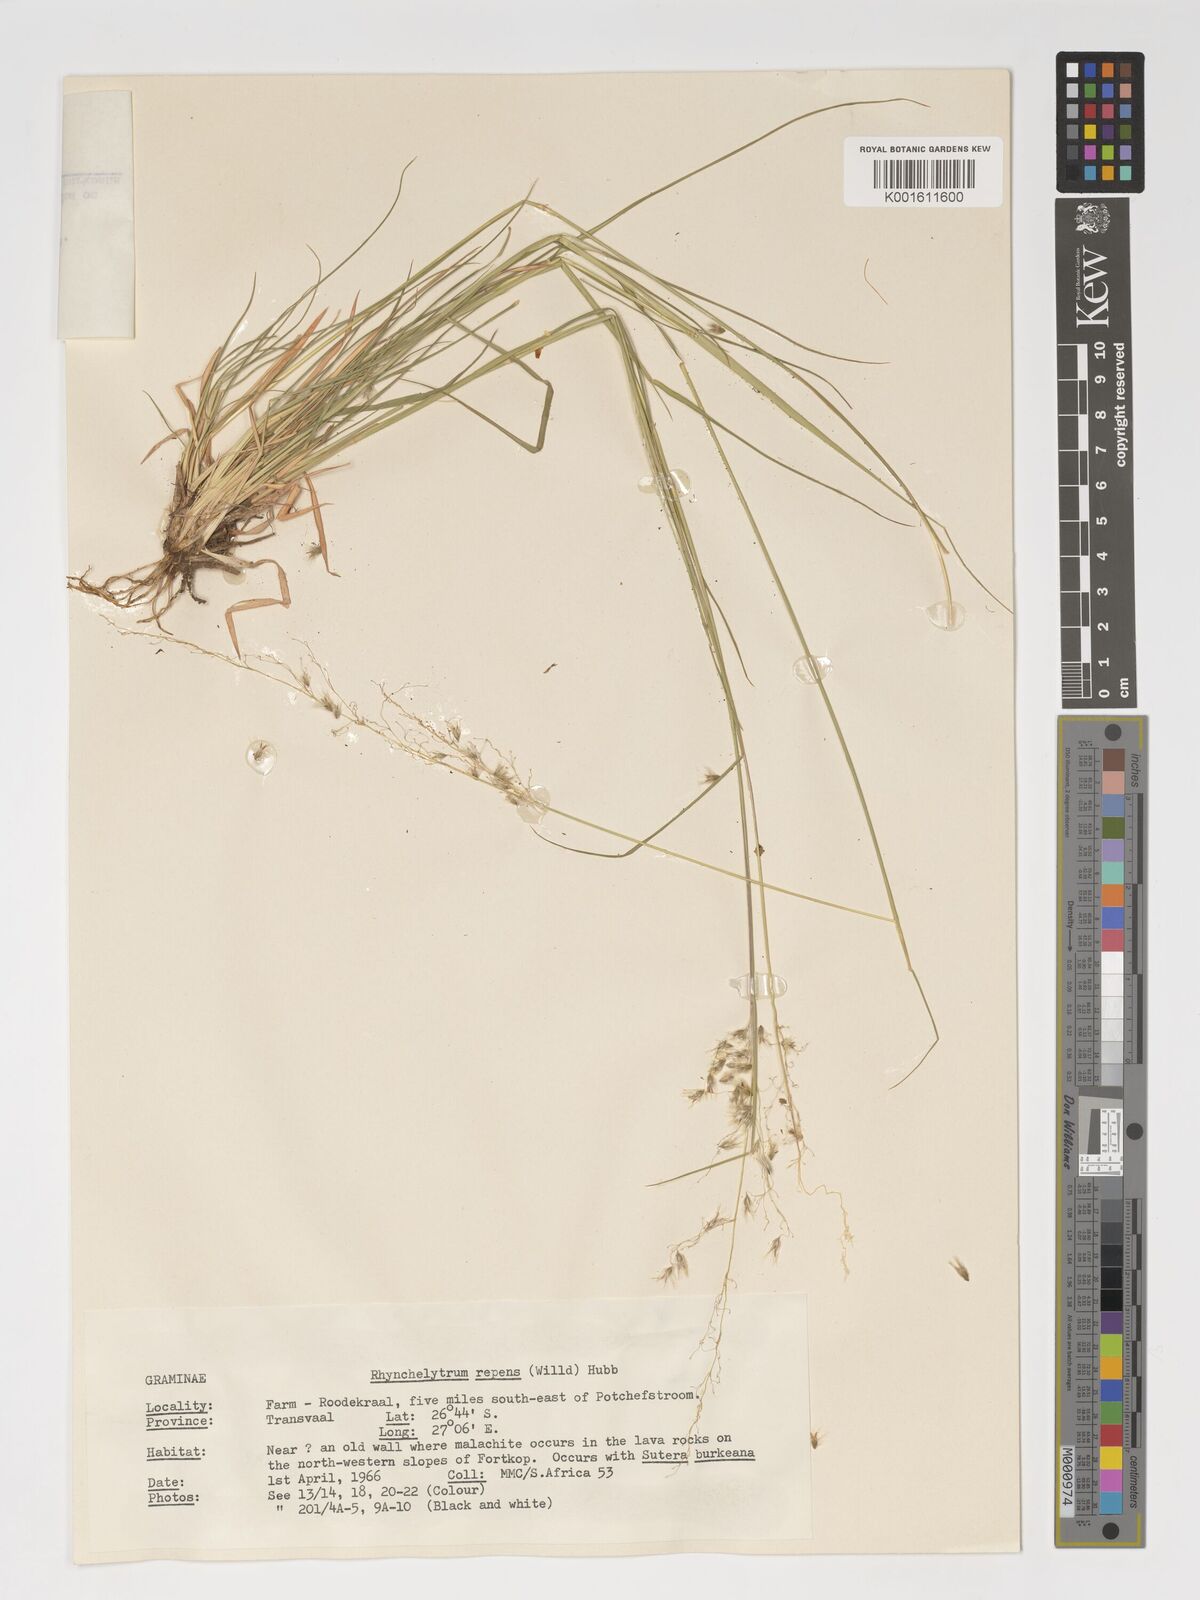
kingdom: Plantae
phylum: Tracheophyta
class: Liliopsida
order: Poales
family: Poaceae
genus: Melinis
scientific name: Melinis repens
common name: Rose natal grass
